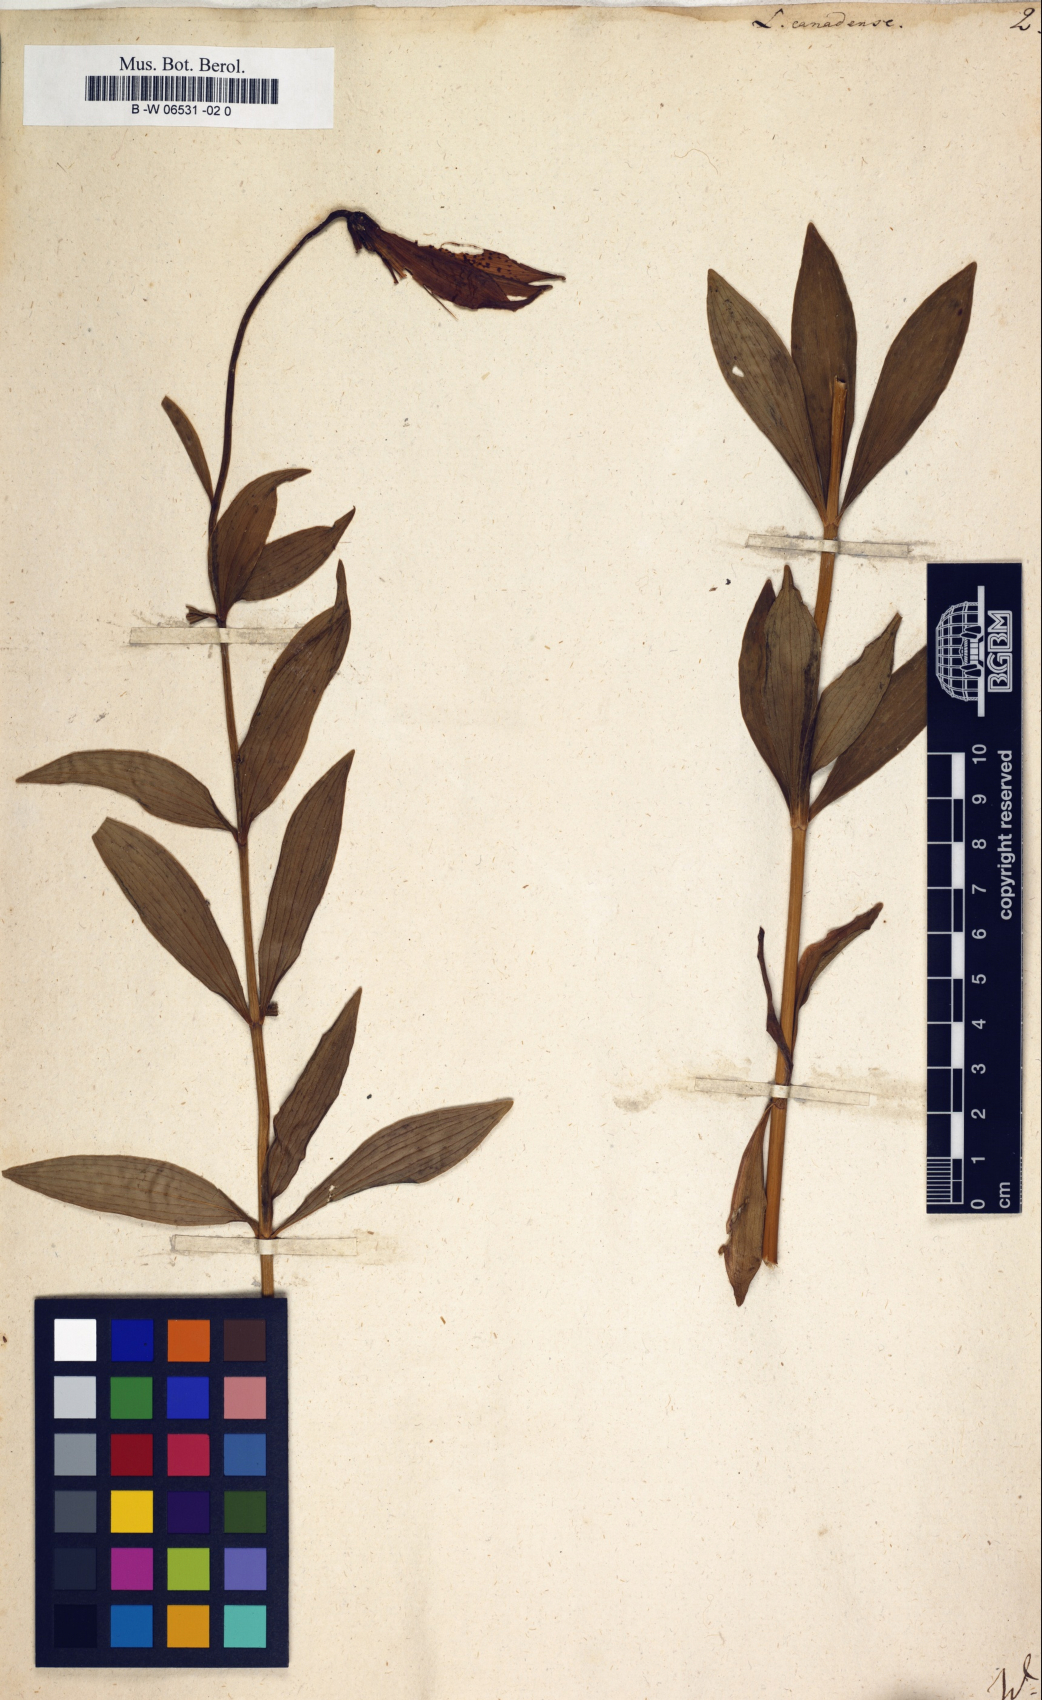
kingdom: Plantae
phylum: Tracheophyta
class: Liliopsida
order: Liliales
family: Liliaceae
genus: Lilium
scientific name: Lilium canadense
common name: Canada lily
